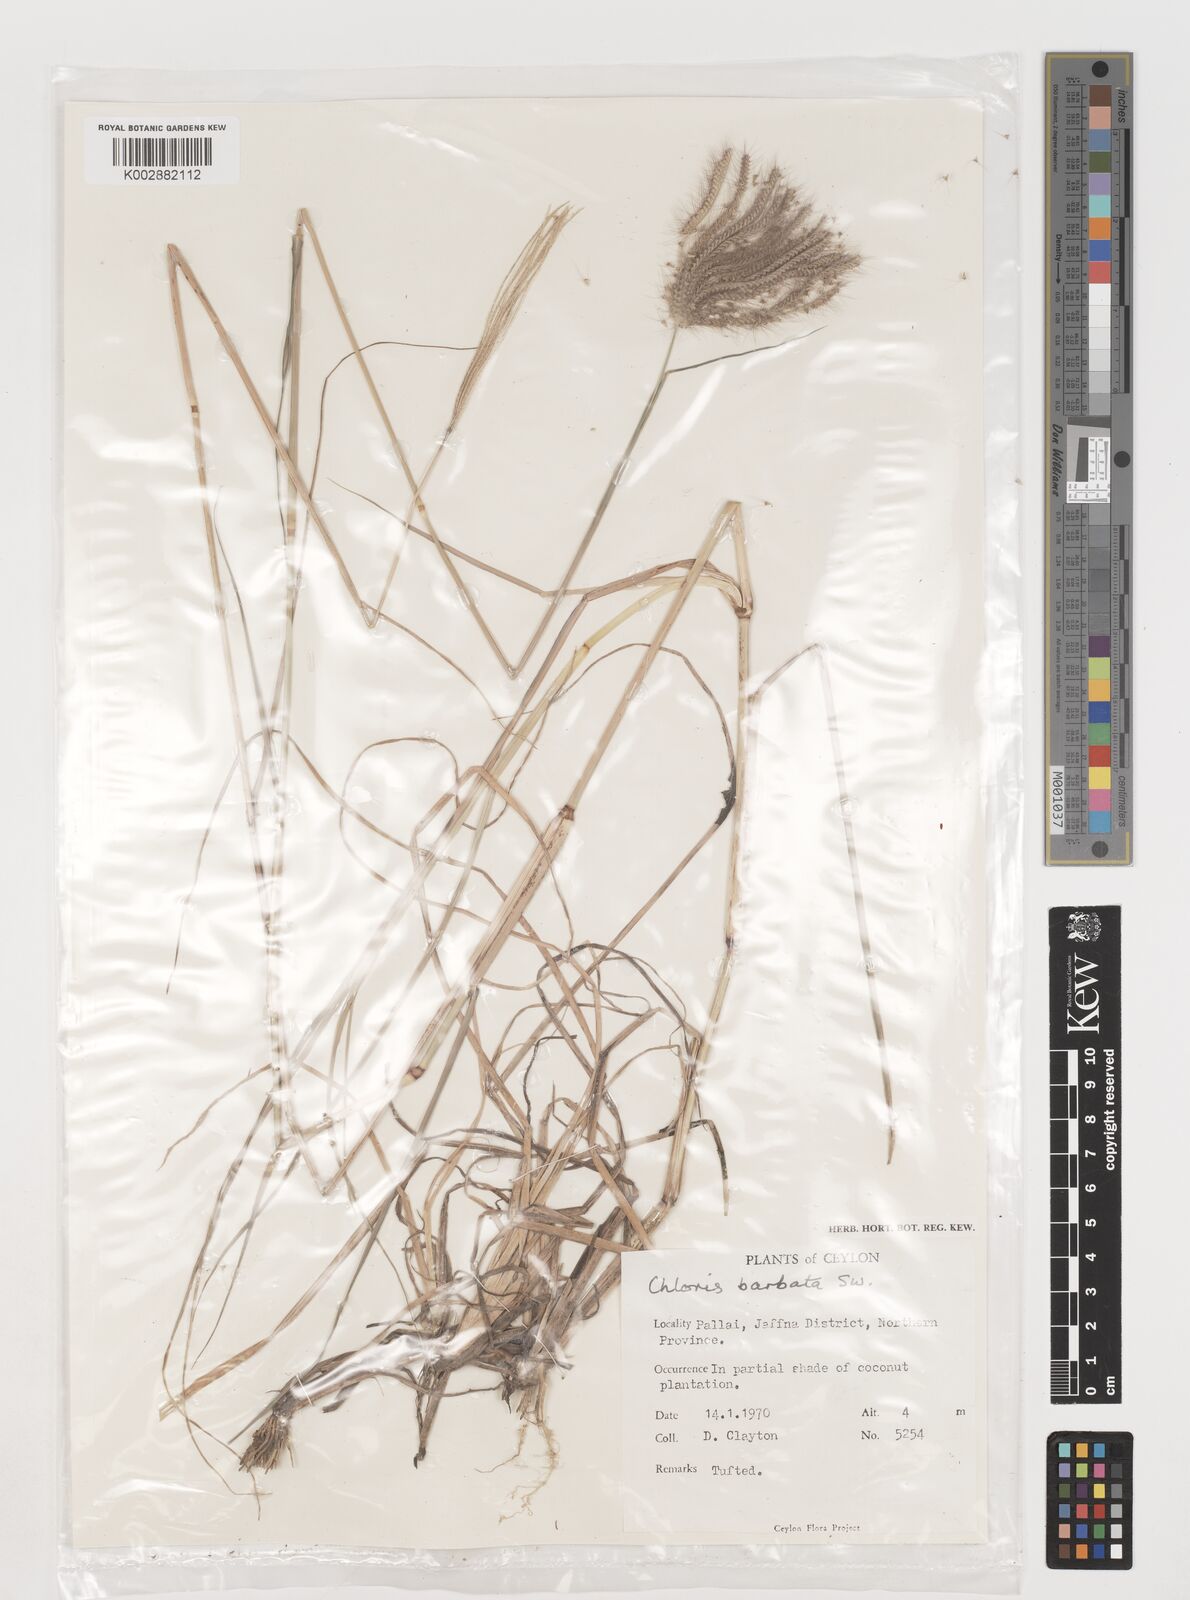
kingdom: Plantae
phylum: Tracheophyta
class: Liliopsida
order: Poales
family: Poaceae
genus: Chloris
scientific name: Chloris barbata
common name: Swollen fingergrass
